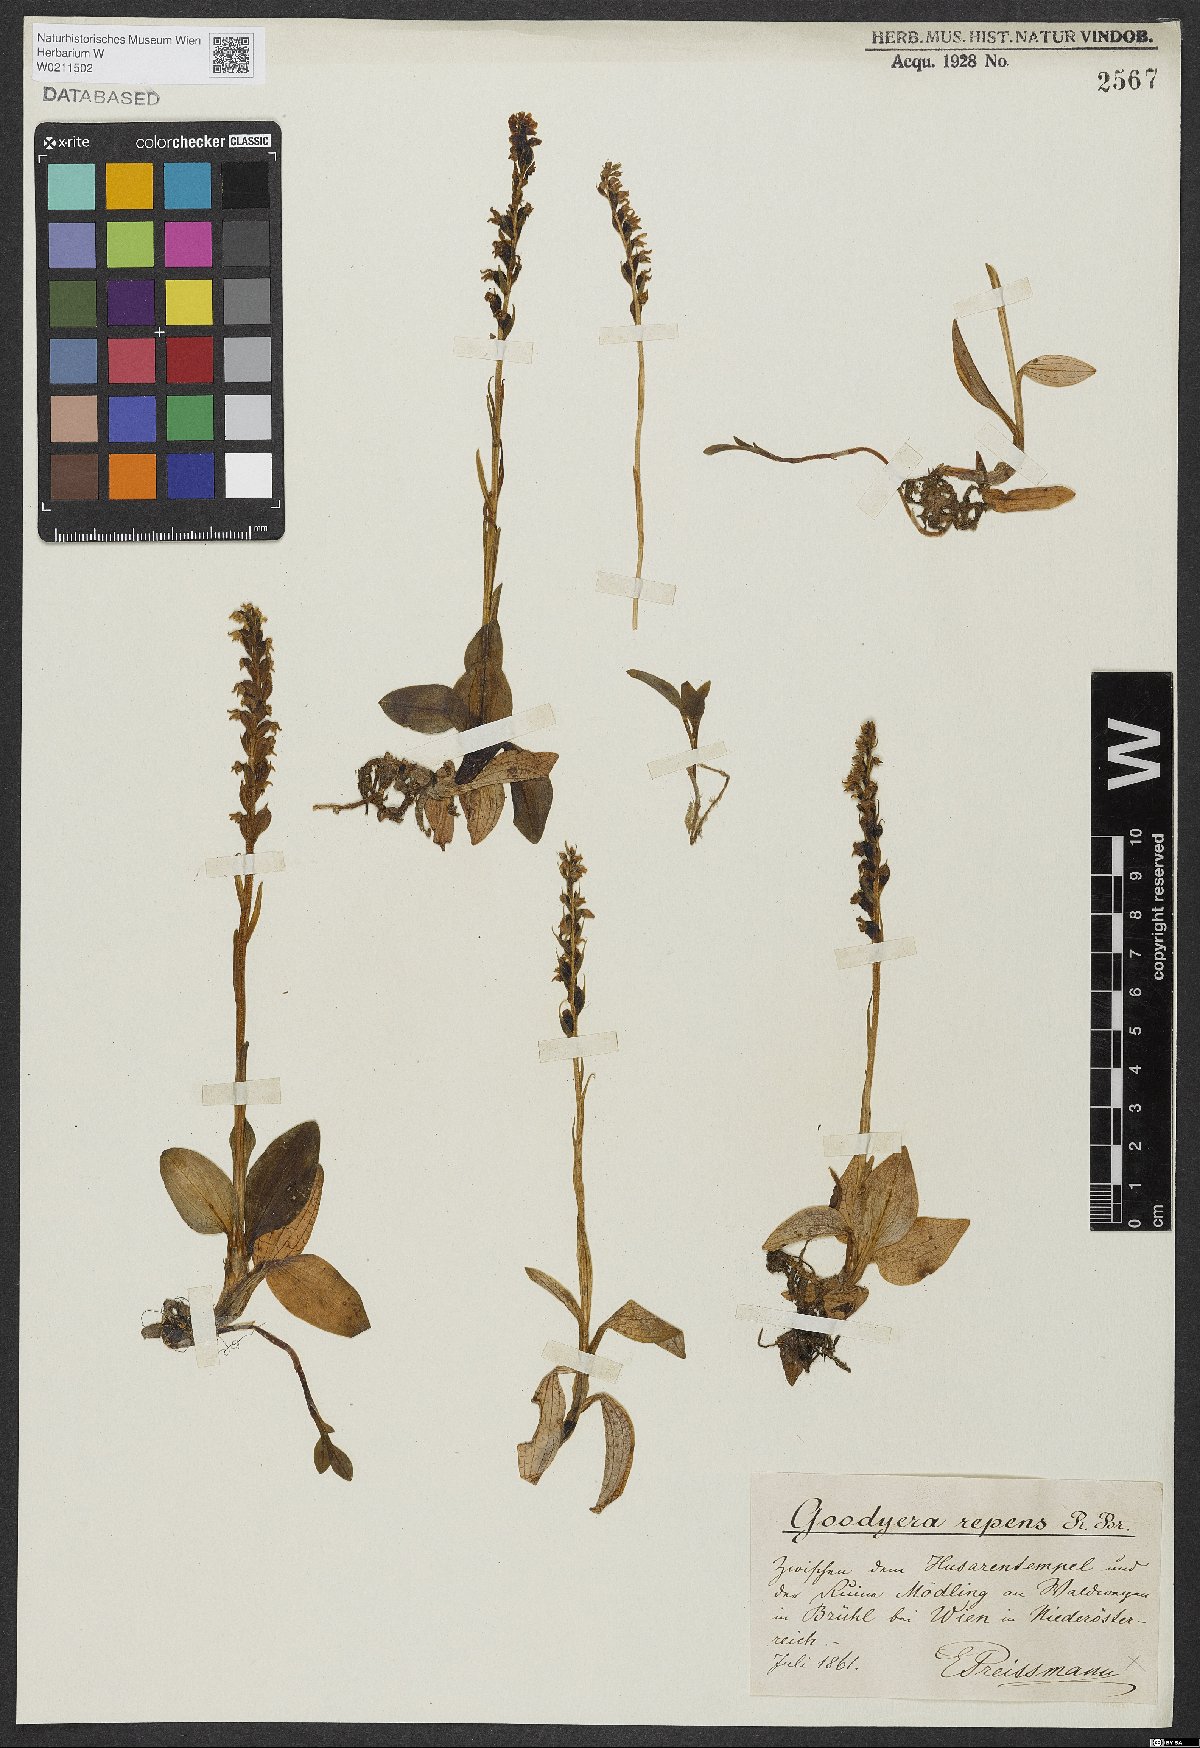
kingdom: Plantae
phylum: Tracheophyta
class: Liliopsida
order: Asparagales
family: Orchidaceae
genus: Goodyera
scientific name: Goodyera repens
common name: Creeping lady's-tresses
